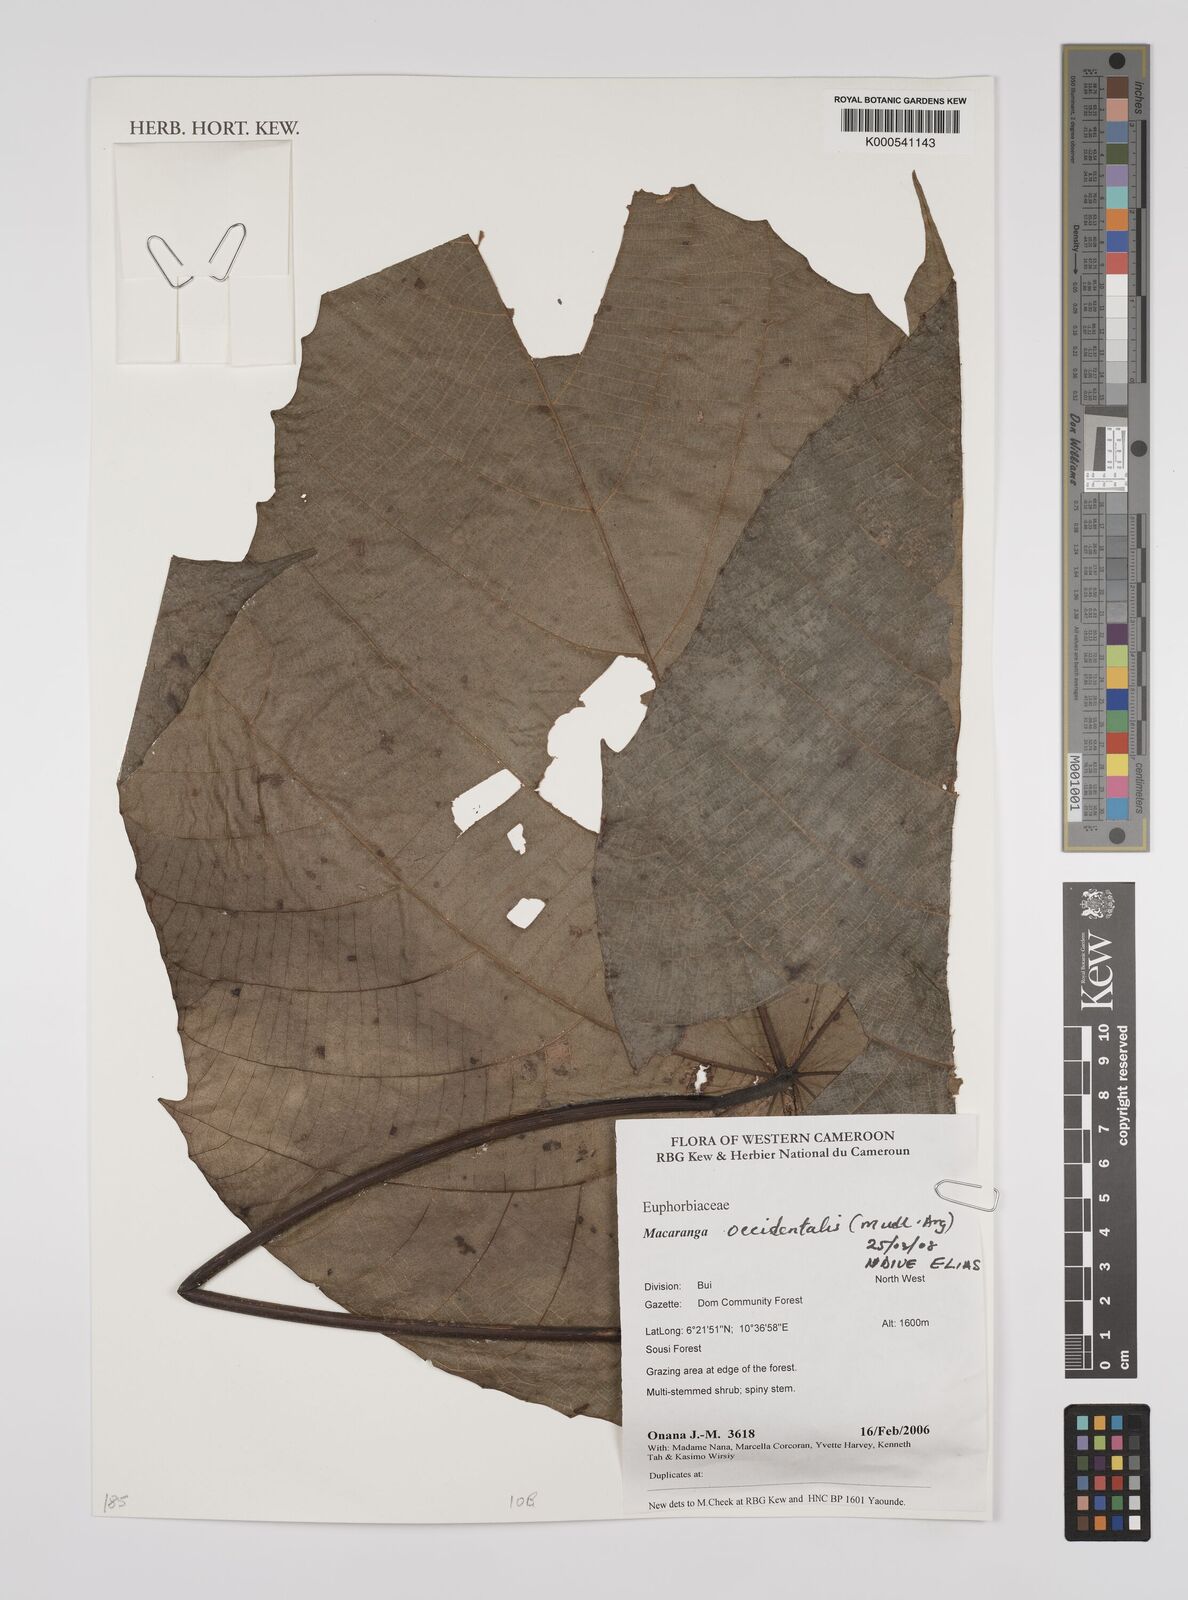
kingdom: Plantae
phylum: Tracheophyta
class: Magnoliopsida
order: Malpighiales
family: Euphorbiaceae
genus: Macaranga
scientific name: Macaranga
